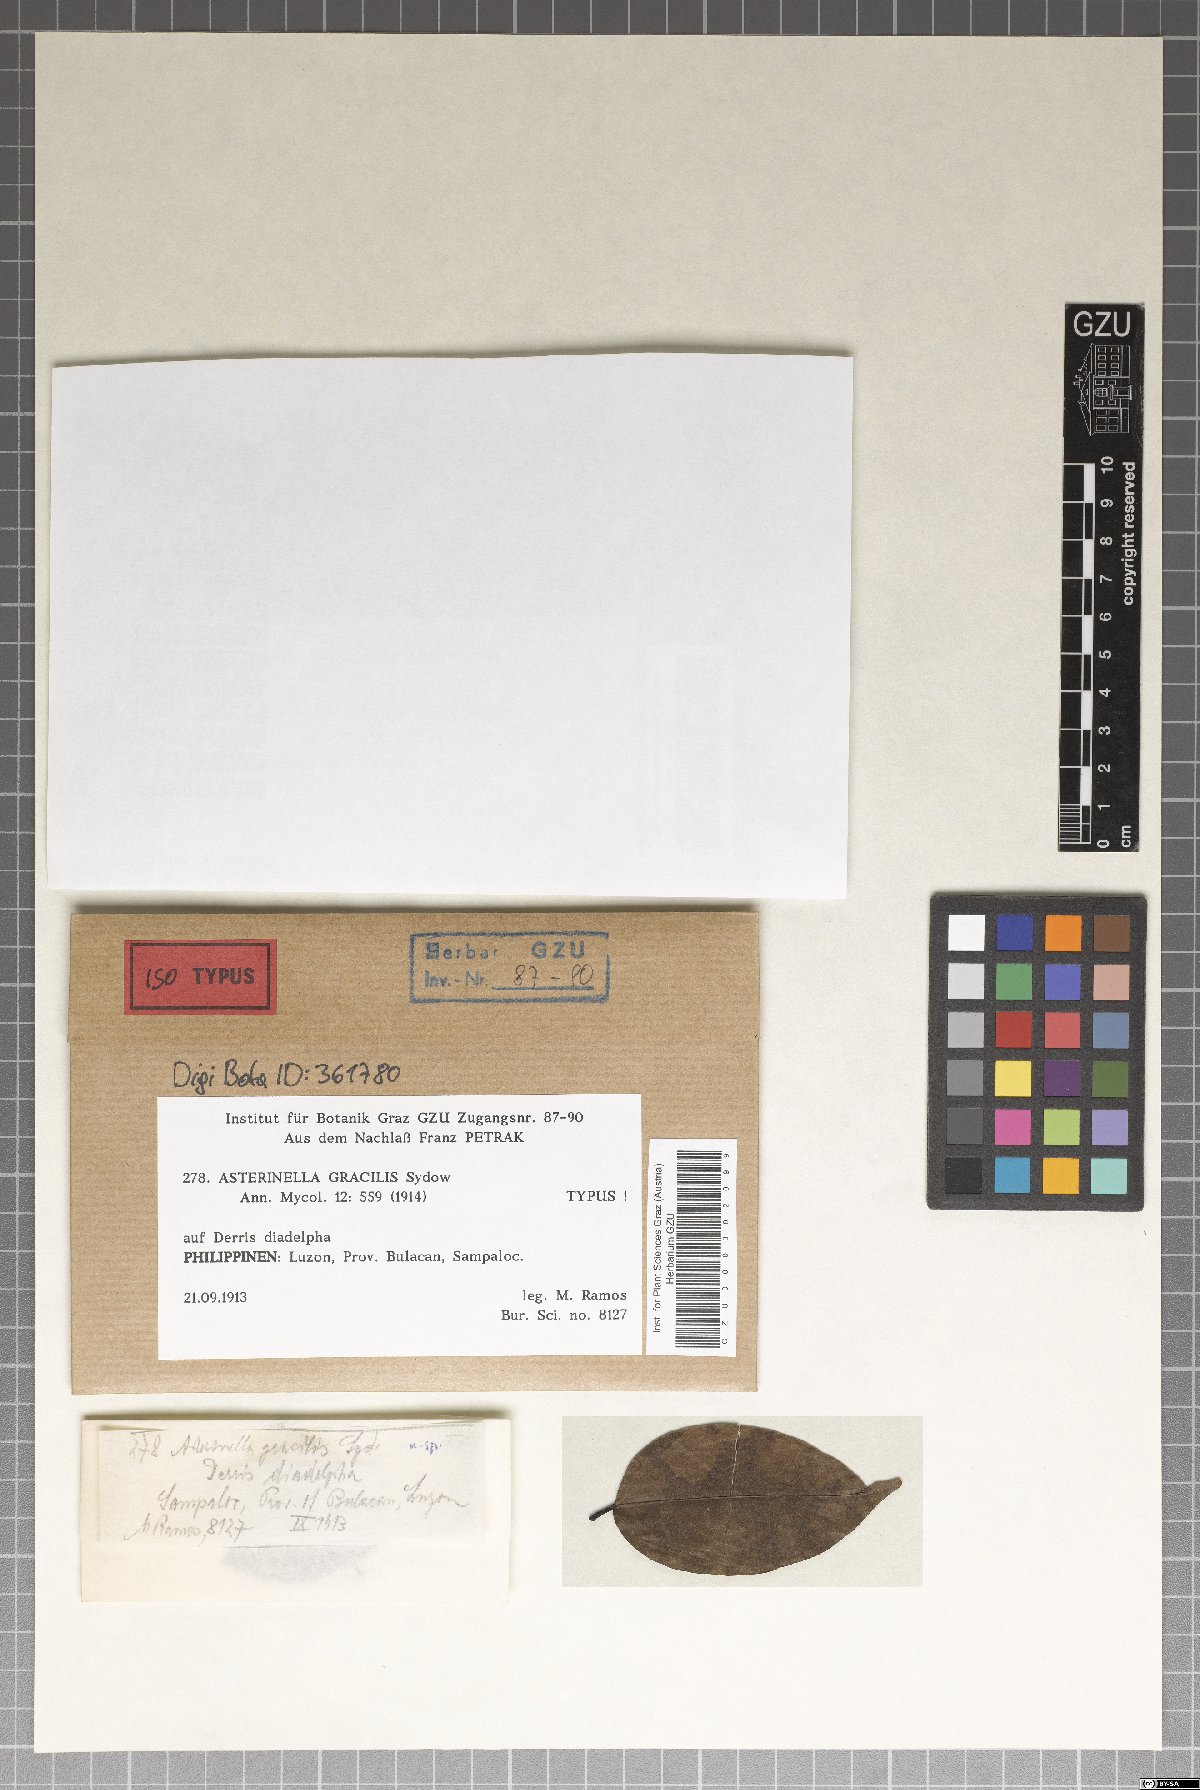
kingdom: Fungi
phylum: Ascomycota
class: Dothideomycetes
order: Asterinales
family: Asterinaceae
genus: Prillieuxina
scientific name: Prillieuxina gracilis
